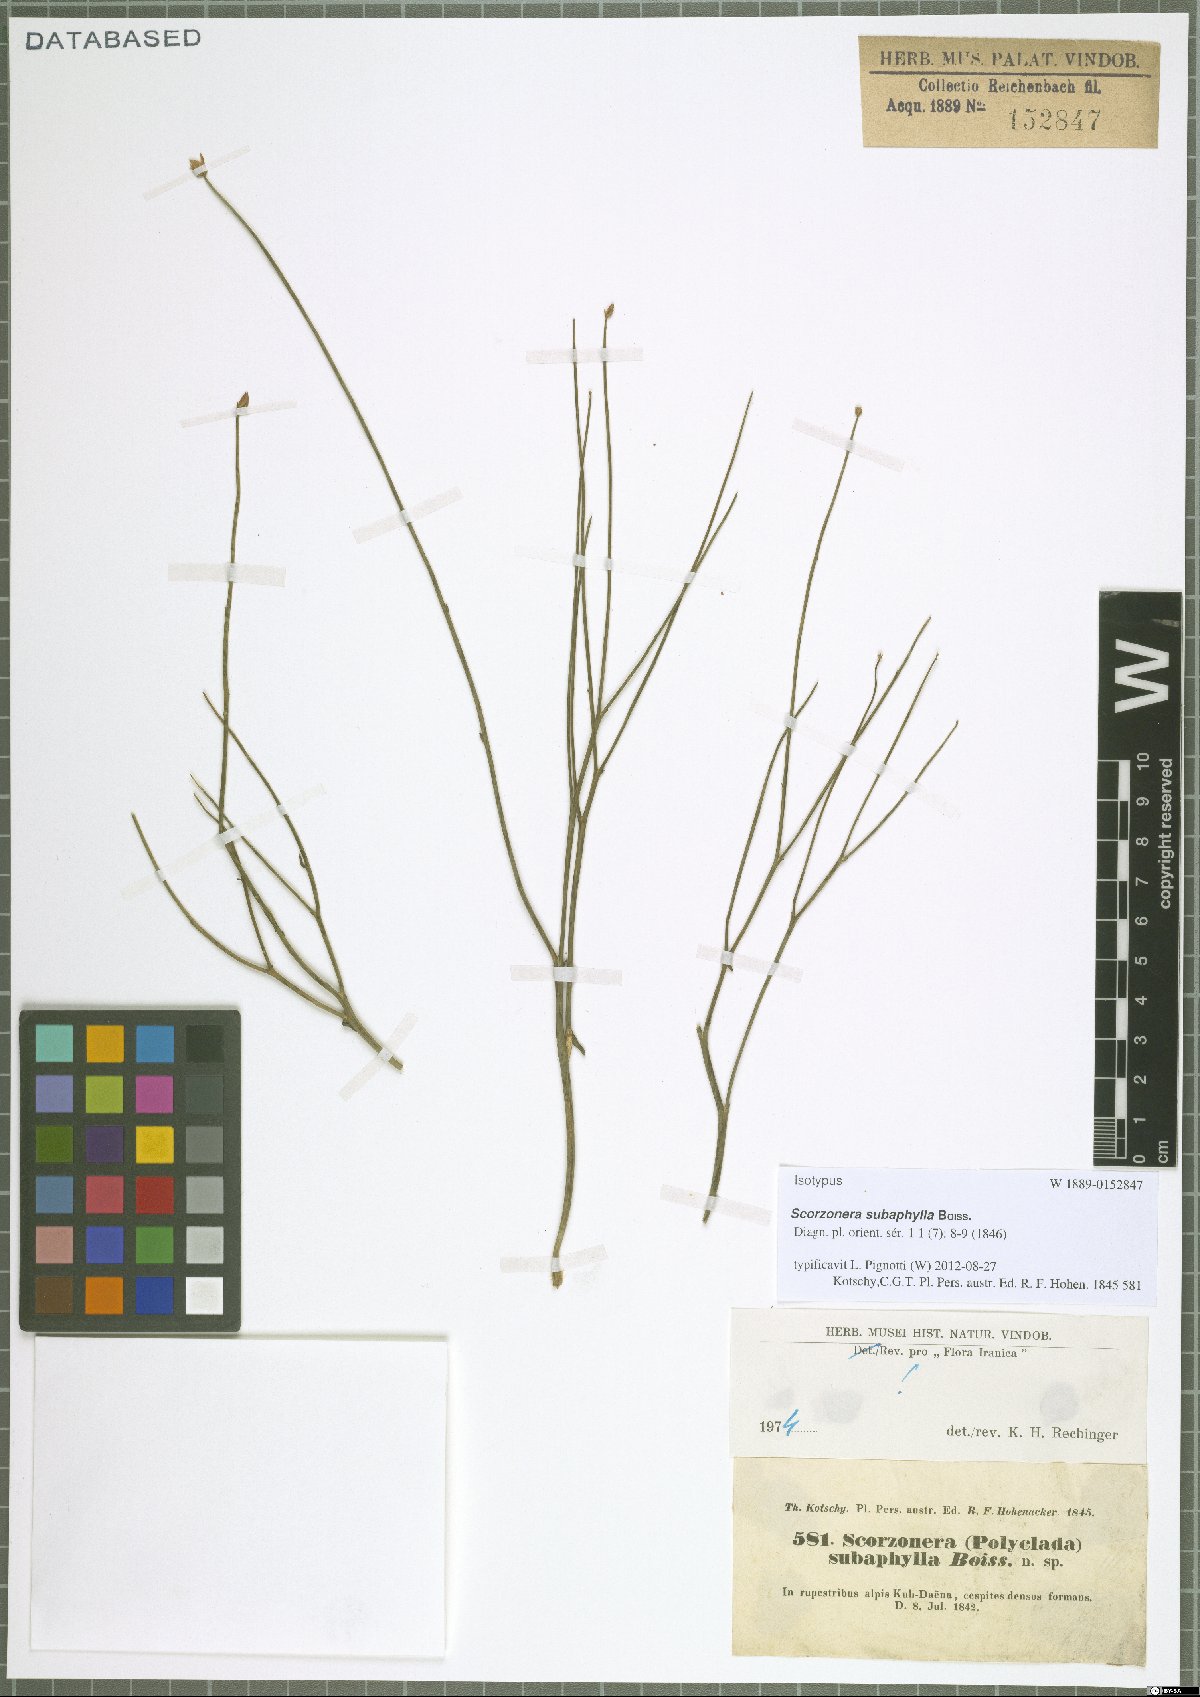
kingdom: Plantae
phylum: Tracheophyta
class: Magnoliopsida
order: Asterales
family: Asteraceae
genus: Scorzonera
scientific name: Scorzonera subaphylla
